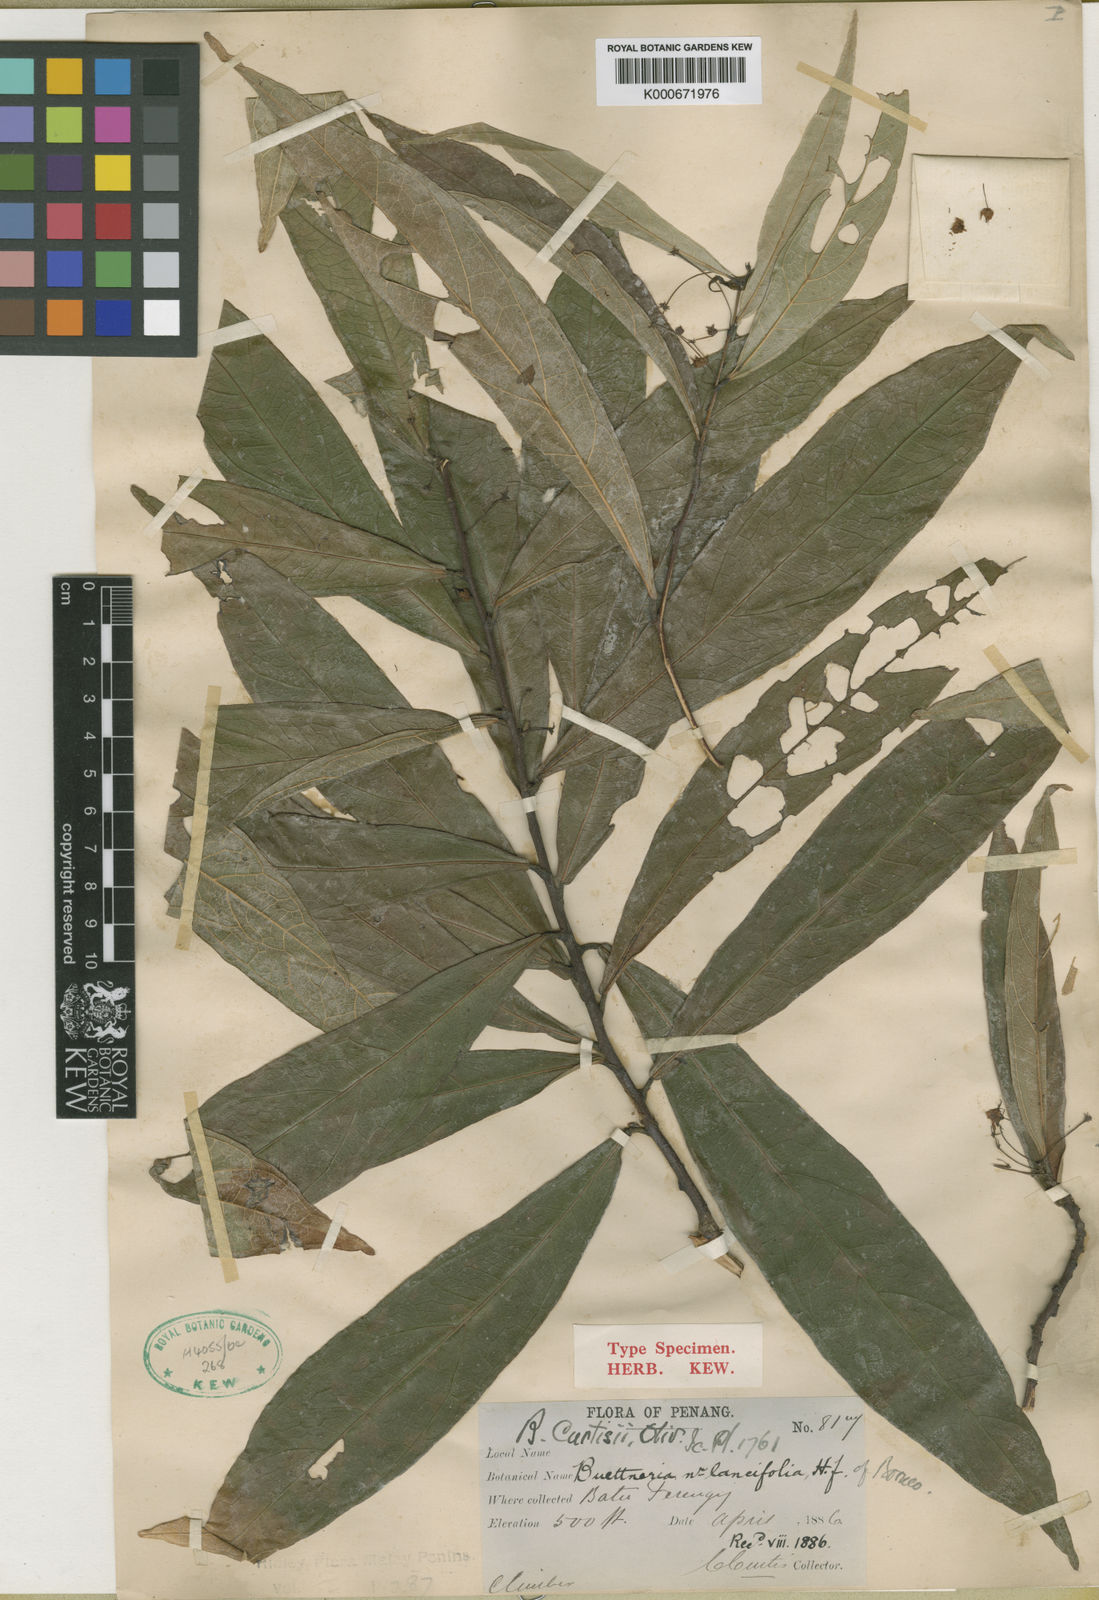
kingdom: Plantae
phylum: Tracheophyta
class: Magnoliopsida
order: Malvales
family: Malvaceae
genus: Byttneria
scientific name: Byttneria curtisii
